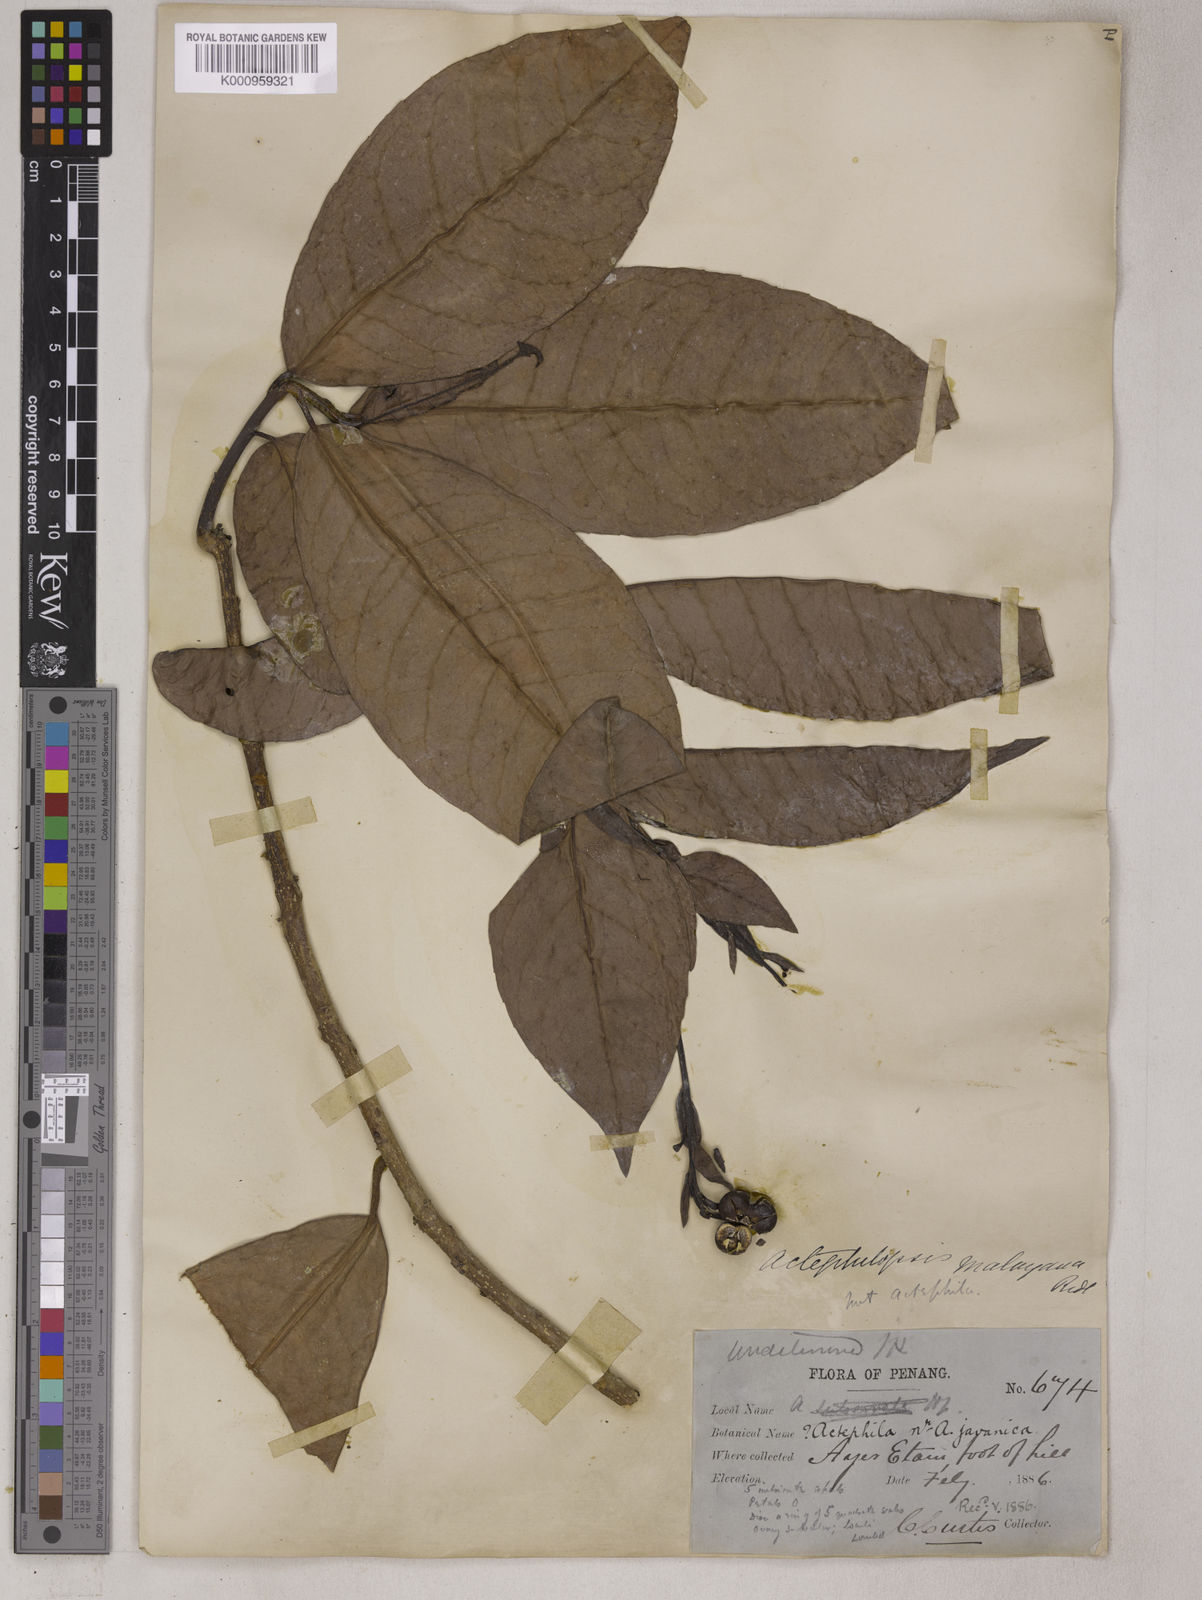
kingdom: Plantae
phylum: Tracheophyta
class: Magnoliopsida
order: Malpighiales
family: Euphorbiaceae
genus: Trigonostemon
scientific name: Trigonostemon aurantiacus
